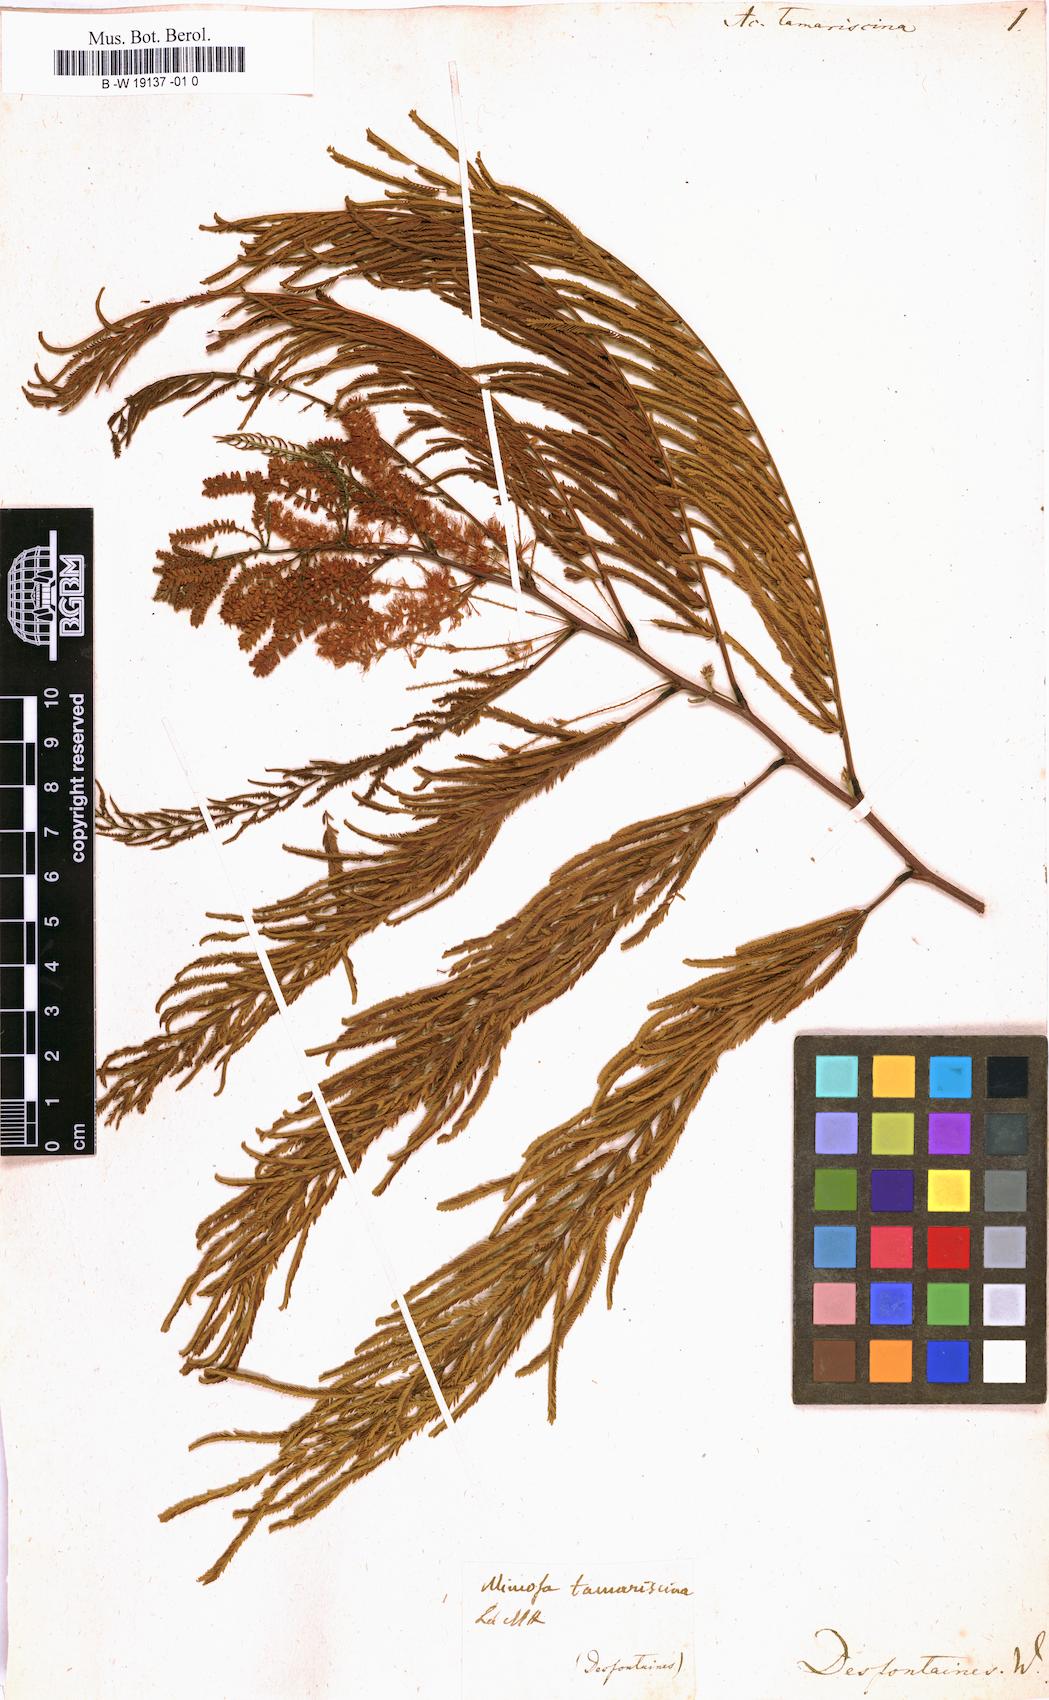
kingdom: Plantae
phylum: Tracheophyta
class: Magnoliopsida
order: Fabales
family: Fabaceae
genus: Gagnebina
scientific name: Gagnebina pterocarpa
